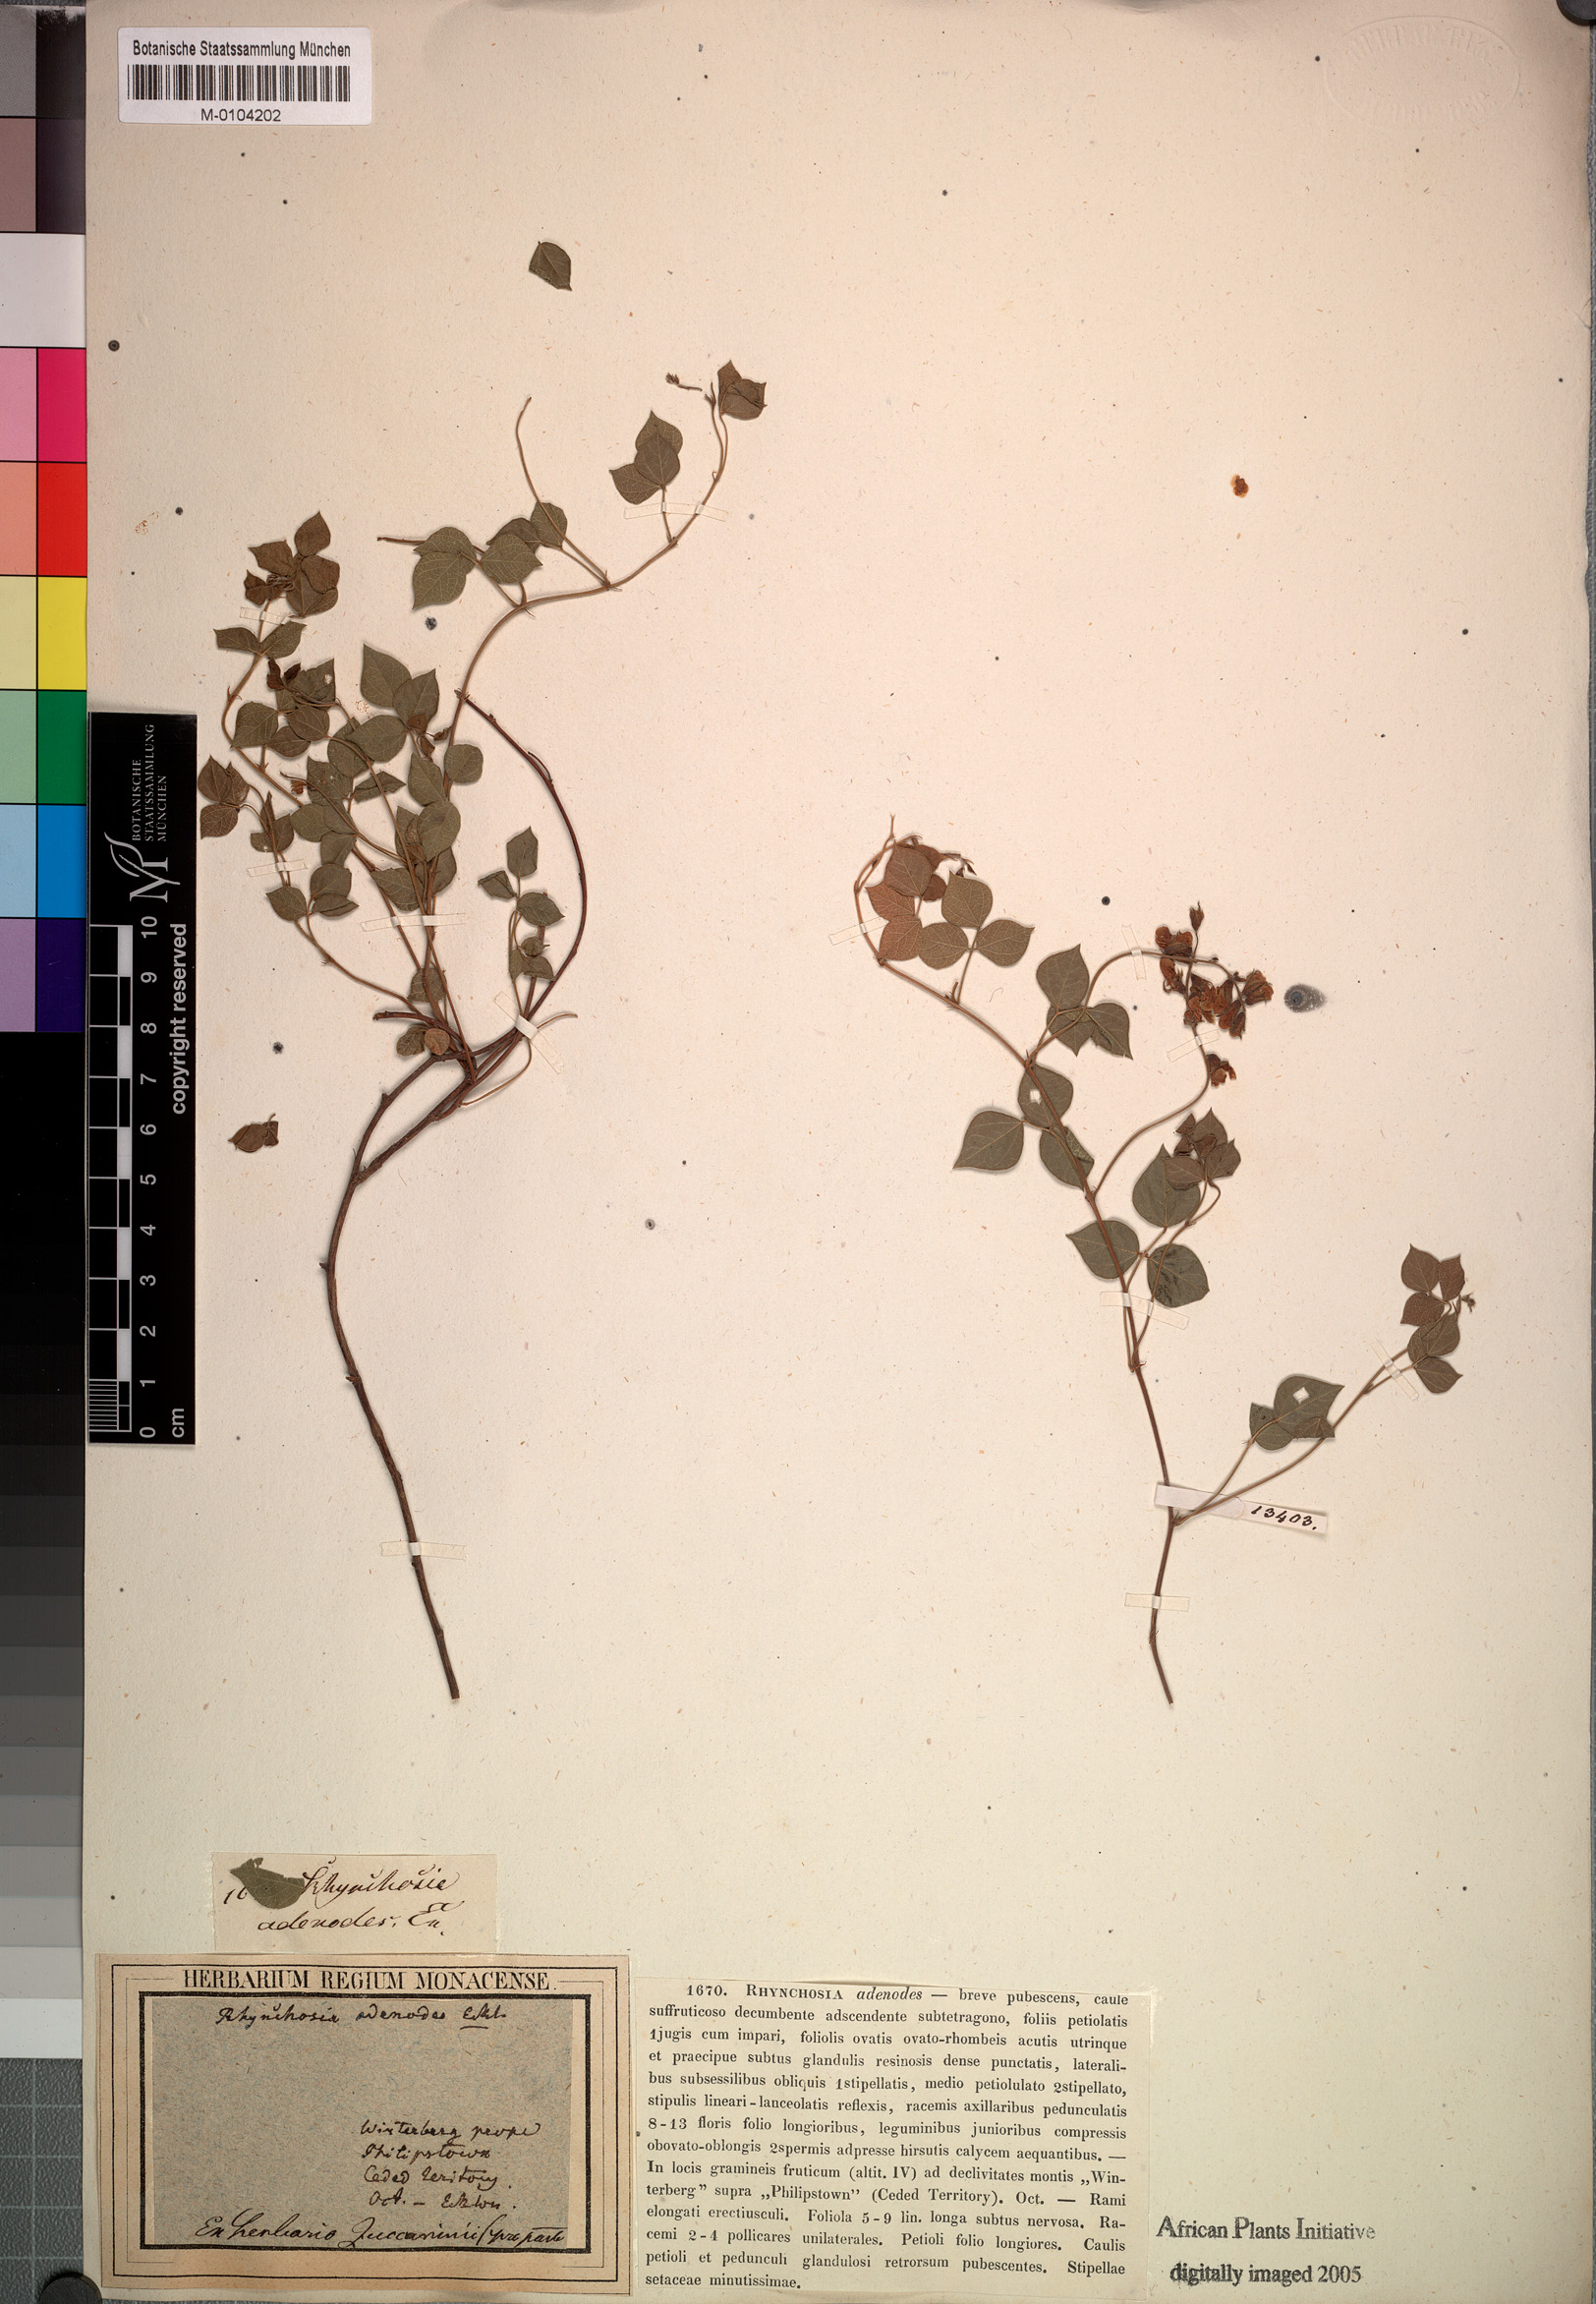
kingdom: Plantae
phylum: Tracheophyta
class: Magnoliopsida
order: Fabales
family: Fabaceae
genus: Rhynchosia
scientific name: Rhynchosia adenodes
